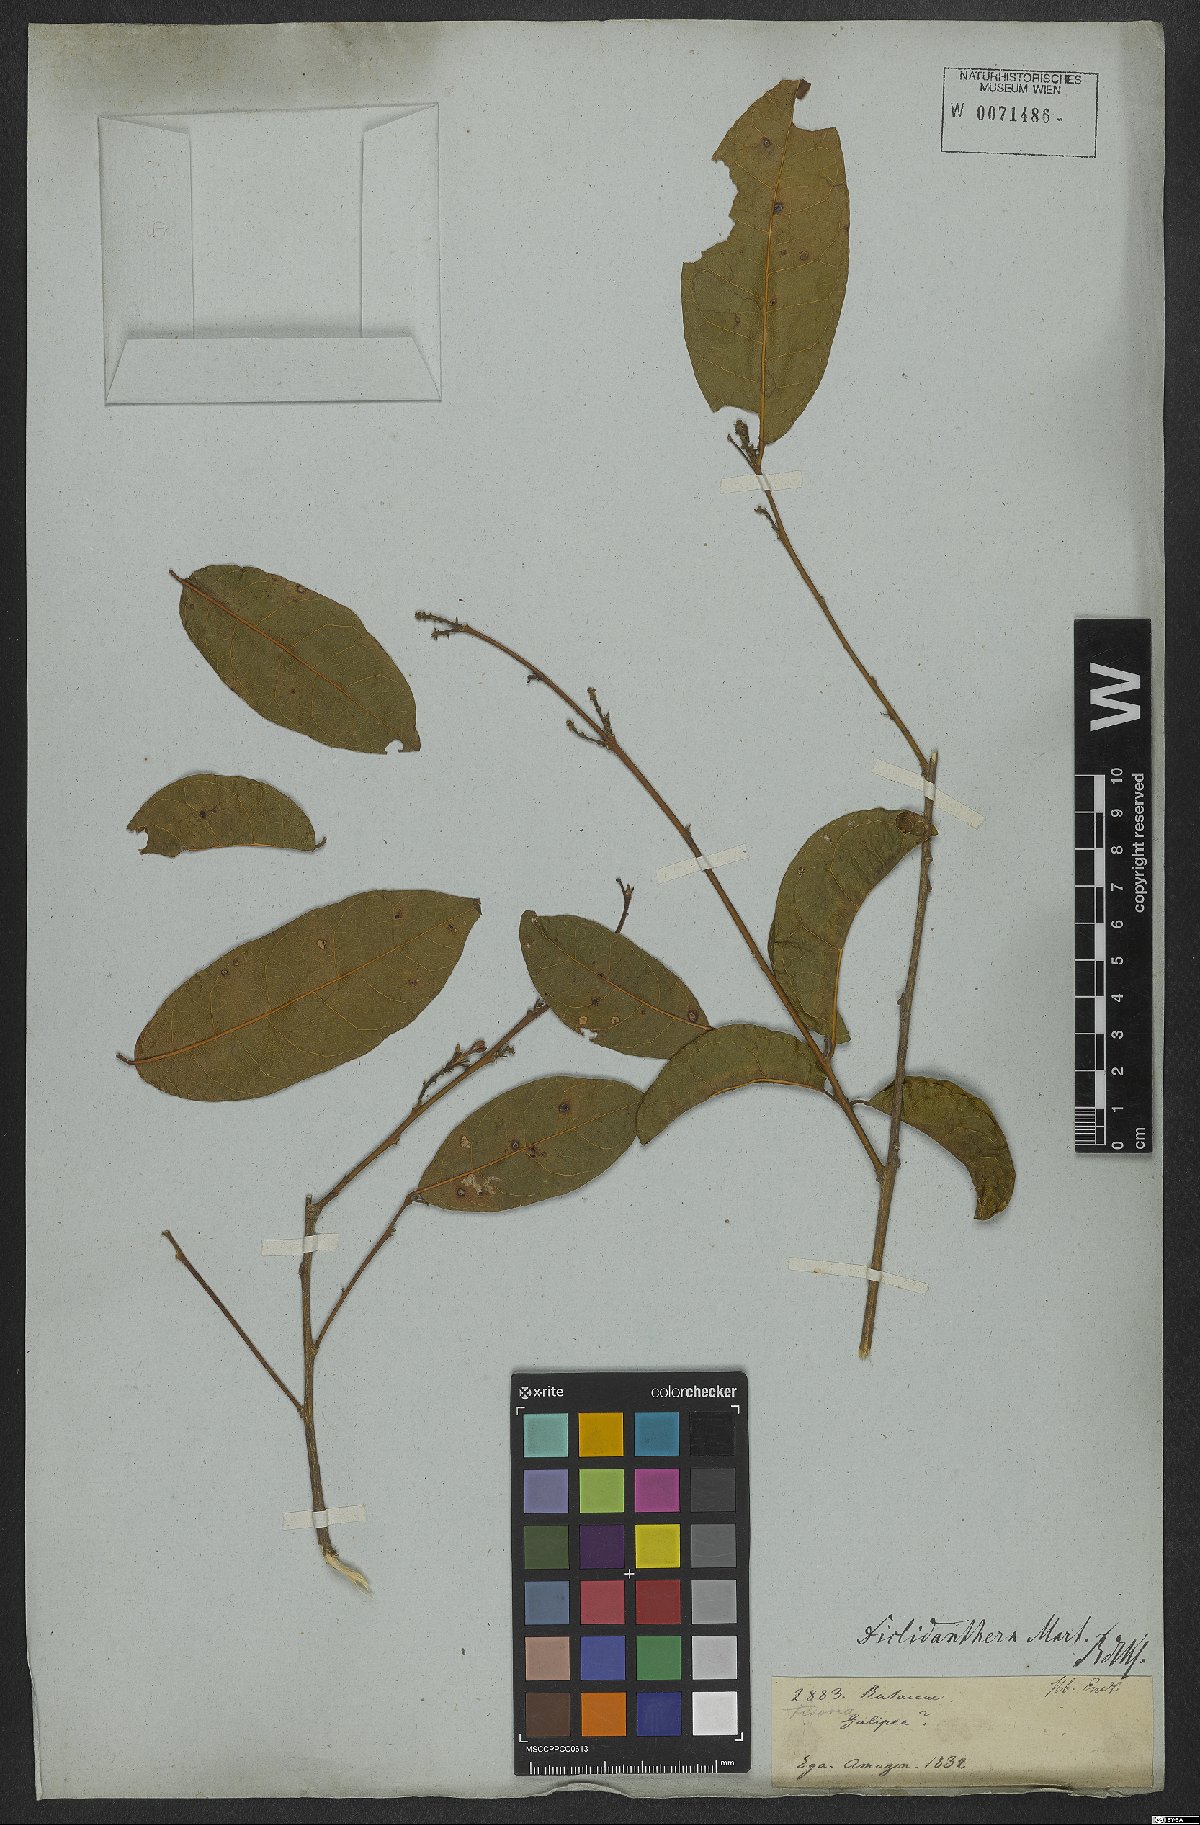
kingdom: Plantae
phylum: Tracheophyta
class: Magnoliopsida
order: Fabales
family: Polygalaceae
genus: Diclidanthera
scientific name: Diclidanthera
